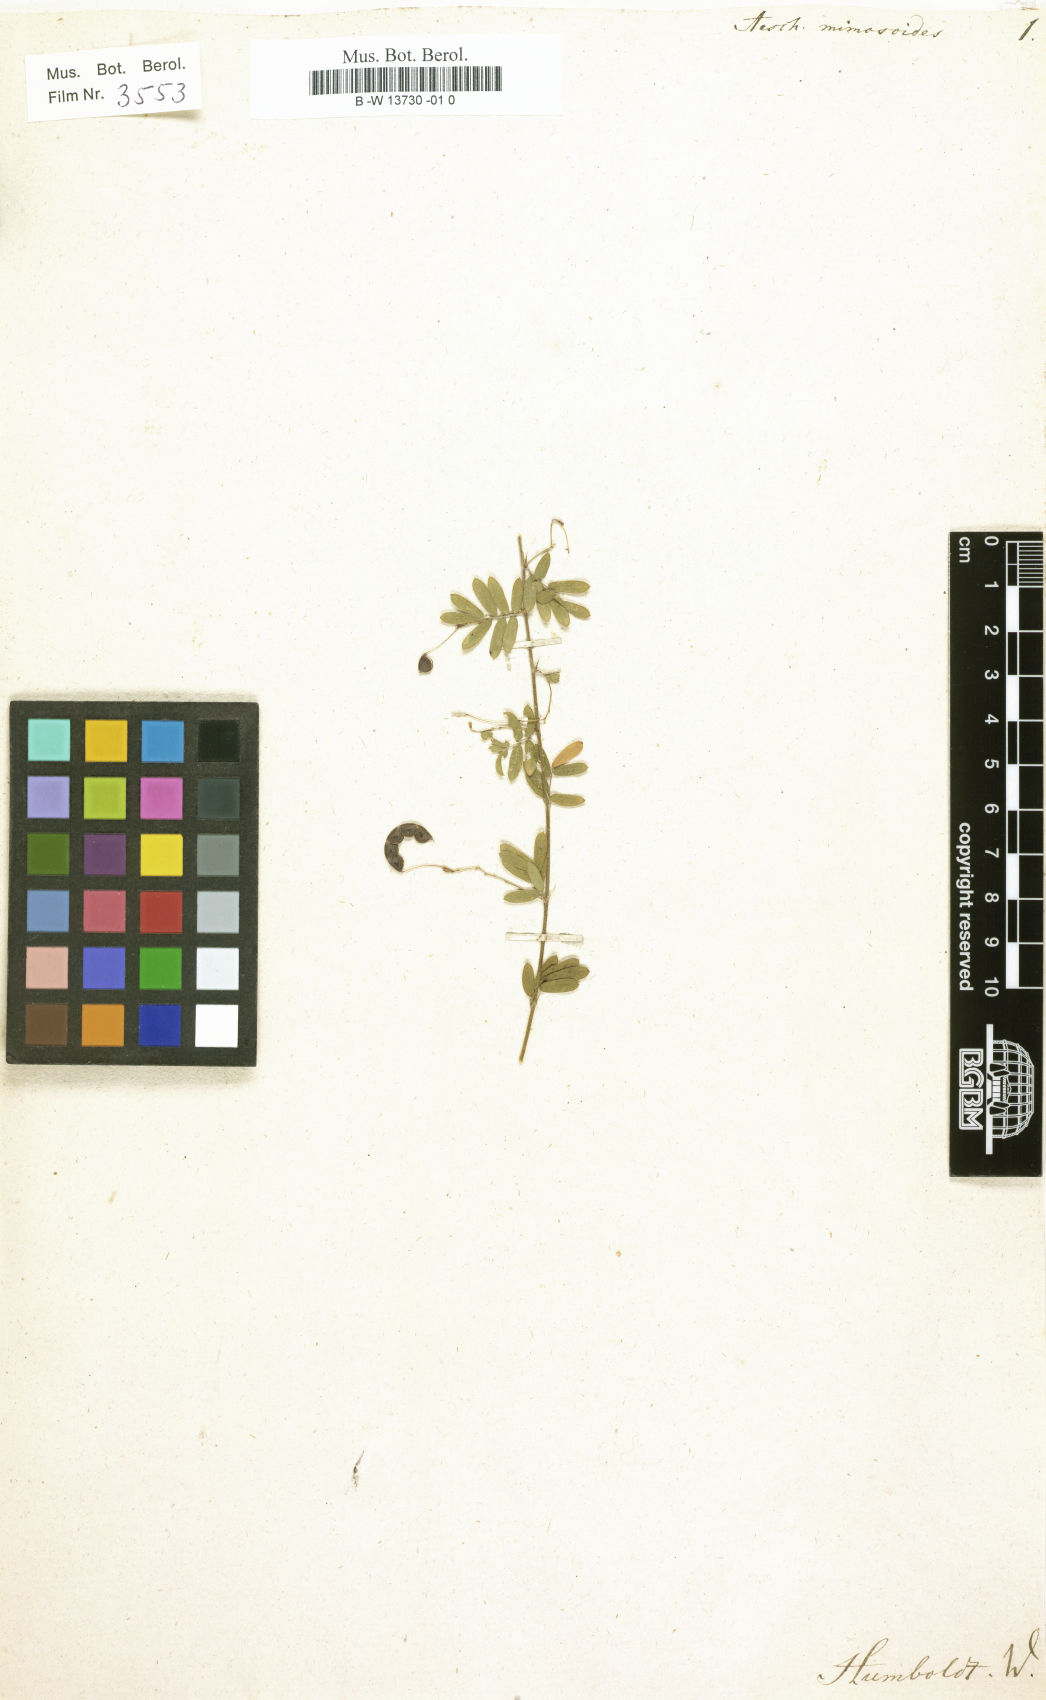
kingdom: Plantae
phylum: Tracheophyta
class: Magnoliopsida
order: Fabales
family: Fabaceae
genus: Ctenodon
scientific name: Ctenodon fascicularis
